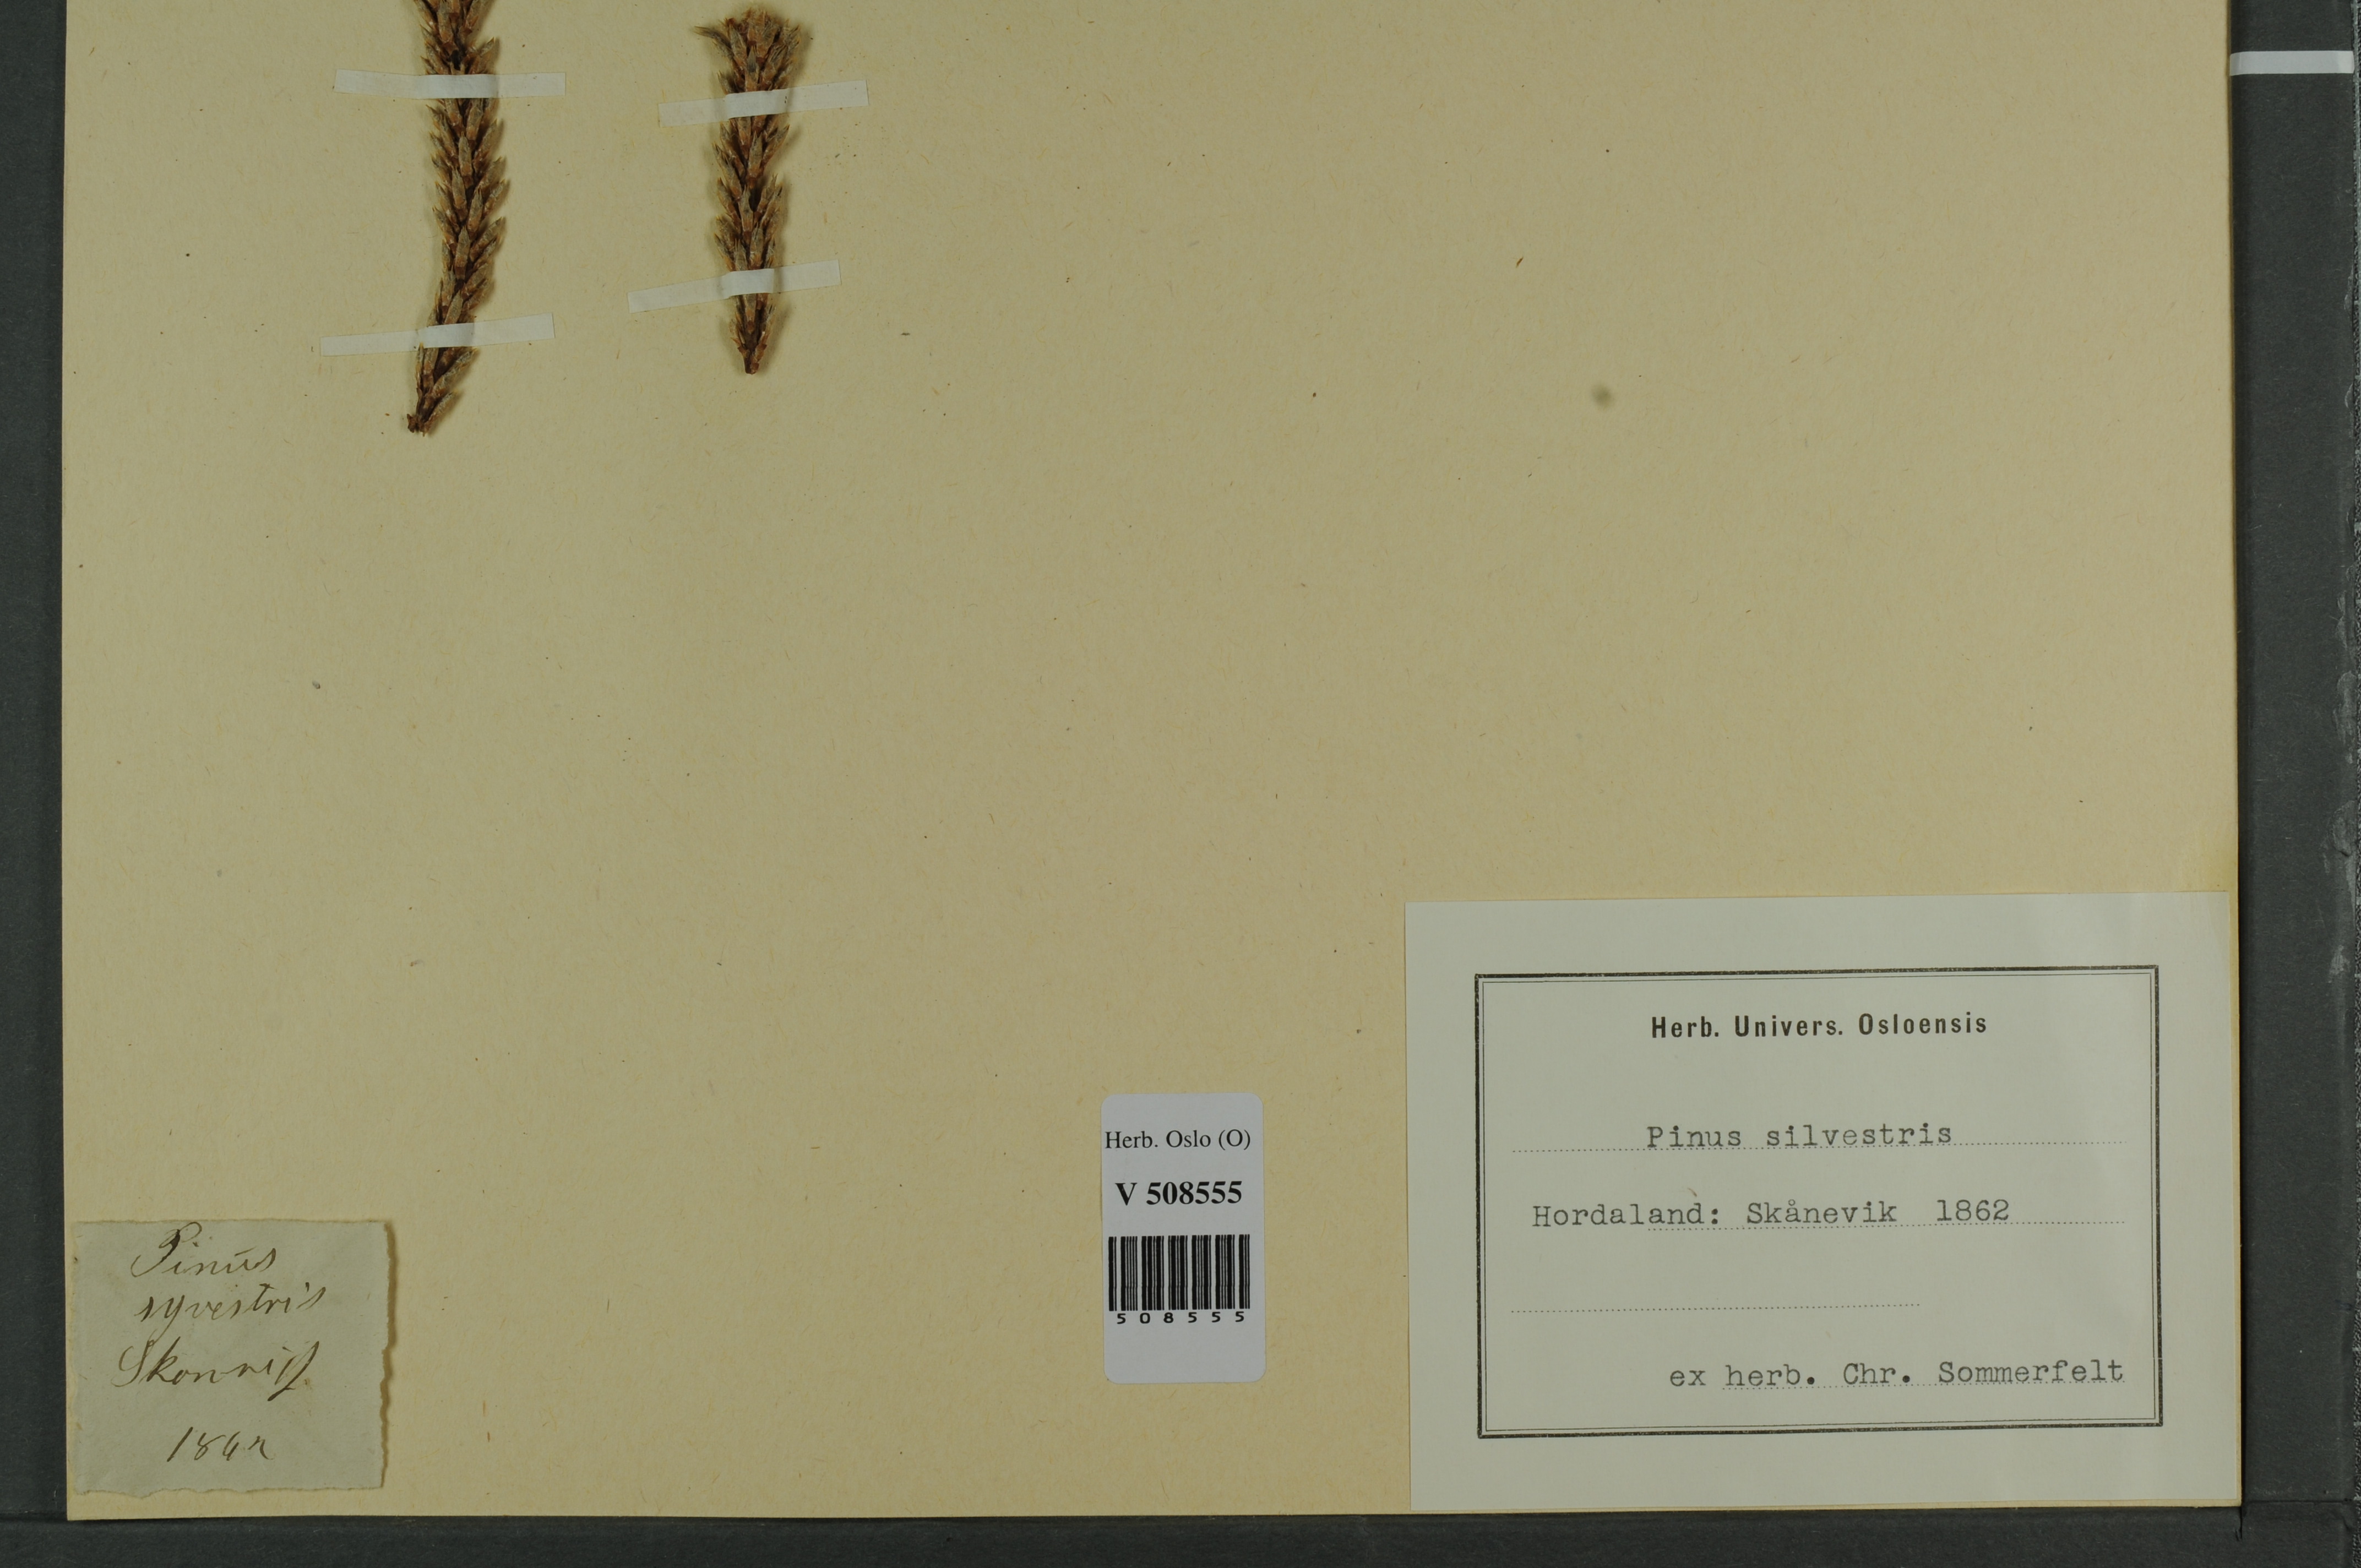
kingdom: Plantae
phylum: Tracheophyta
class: Pinopsida
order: Pinales
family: Pinaceae
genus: Pinus
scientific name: Pinus sylvestris
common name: Scots pine
